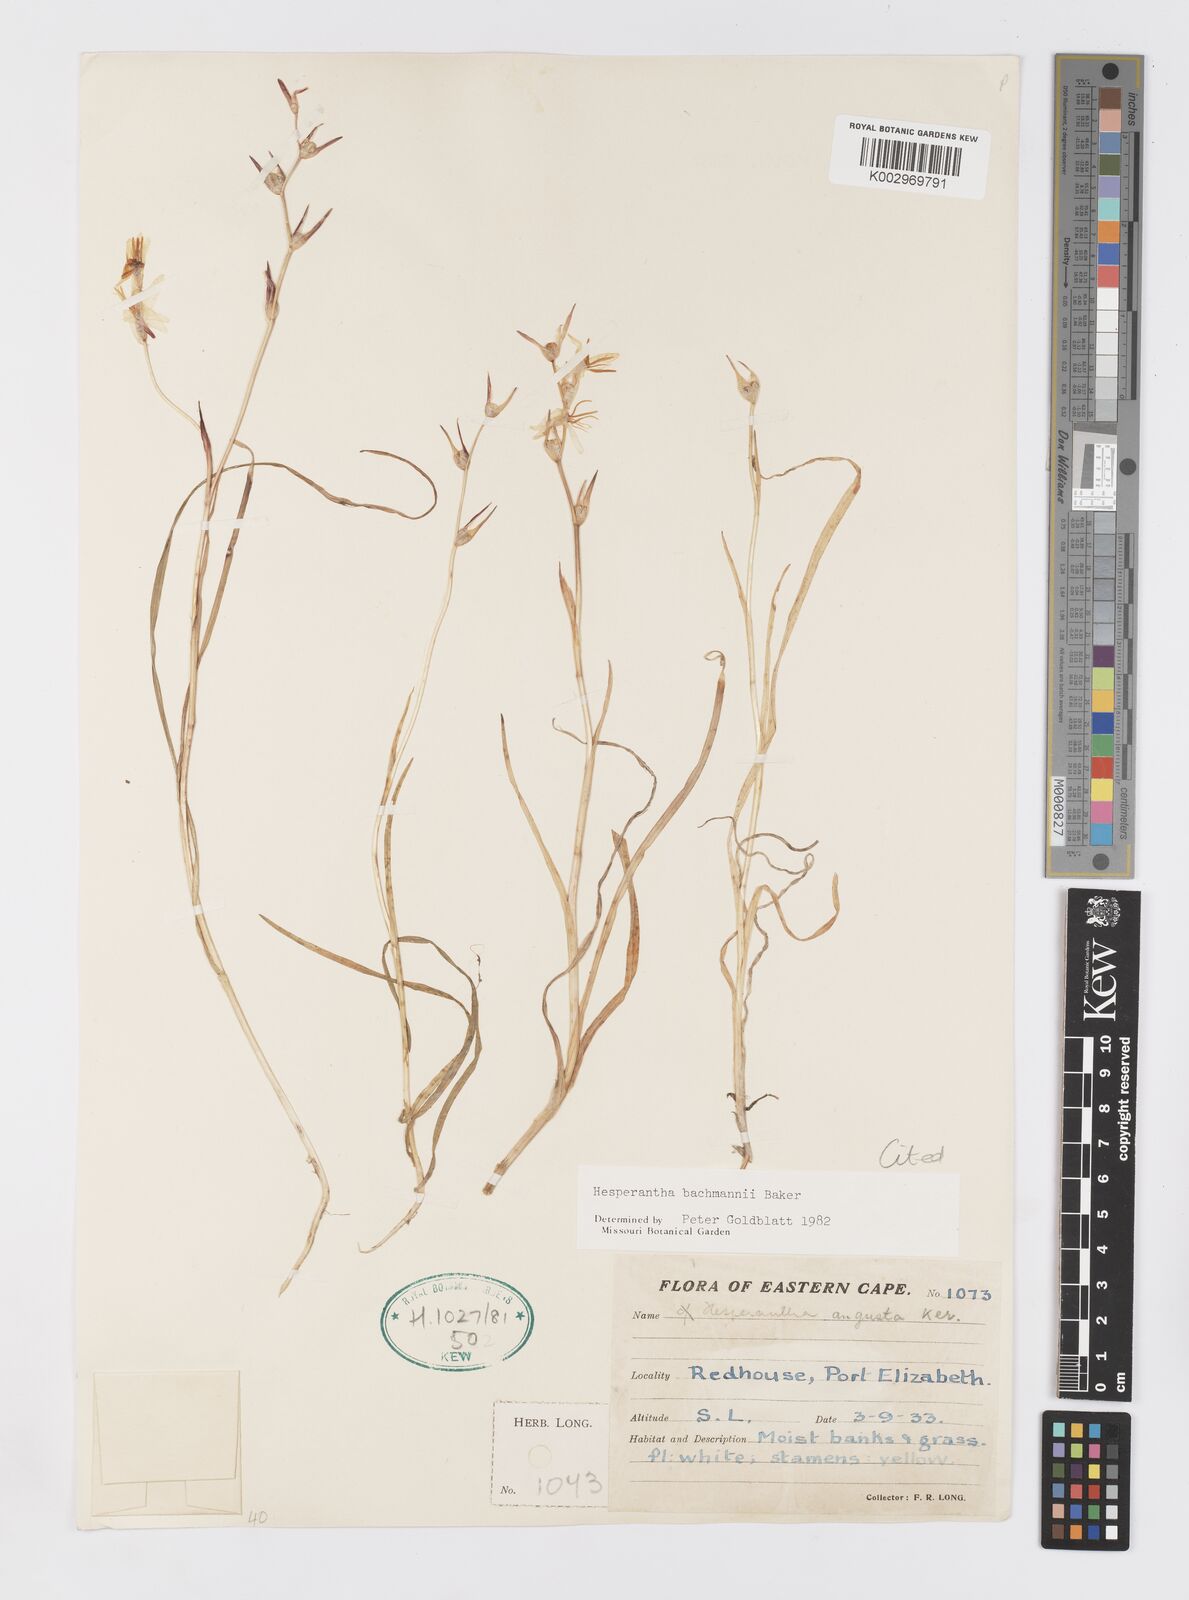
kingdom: Plantae
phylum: Tracheophyta
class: Liliopsida
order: Asparagales
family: Iridaceae
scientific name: Iridaceae
